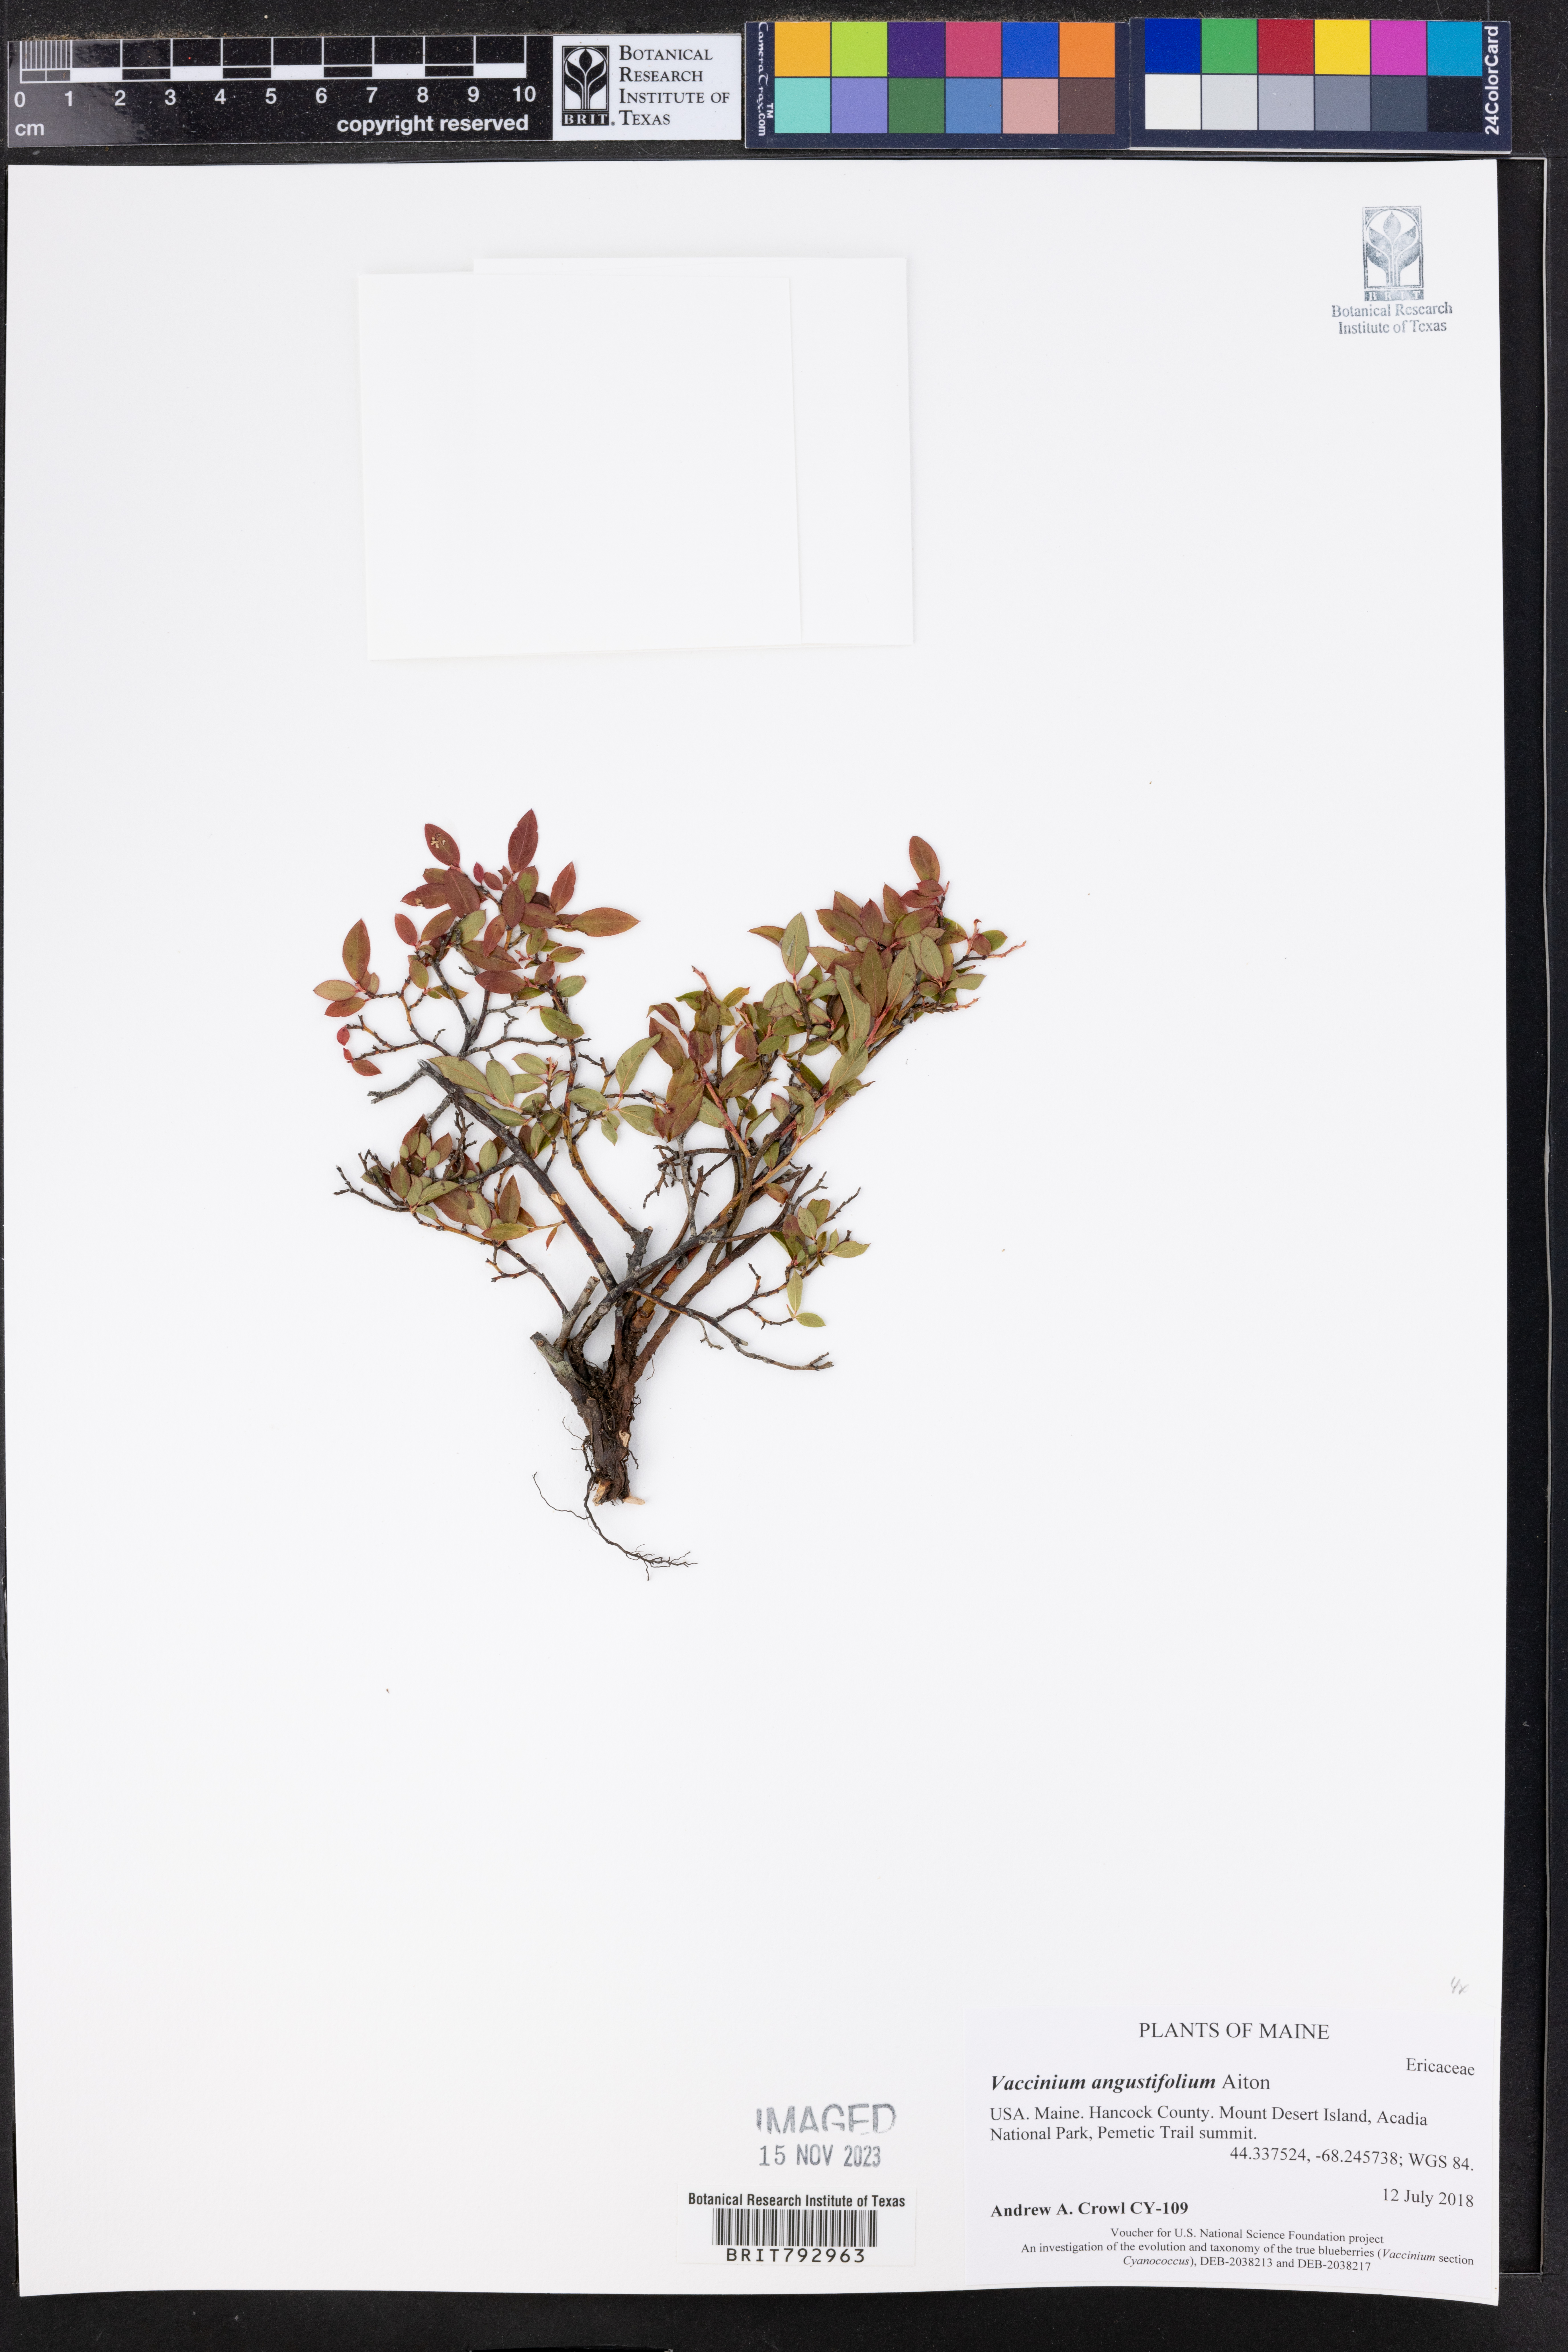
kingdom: Plantae
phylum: Tracheophyta
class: Magnoliopsida
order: Ericales
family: Ericaceae
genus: Vaccinium
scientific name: Vaccinium angustifolium
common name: Early lowbush blueberry
